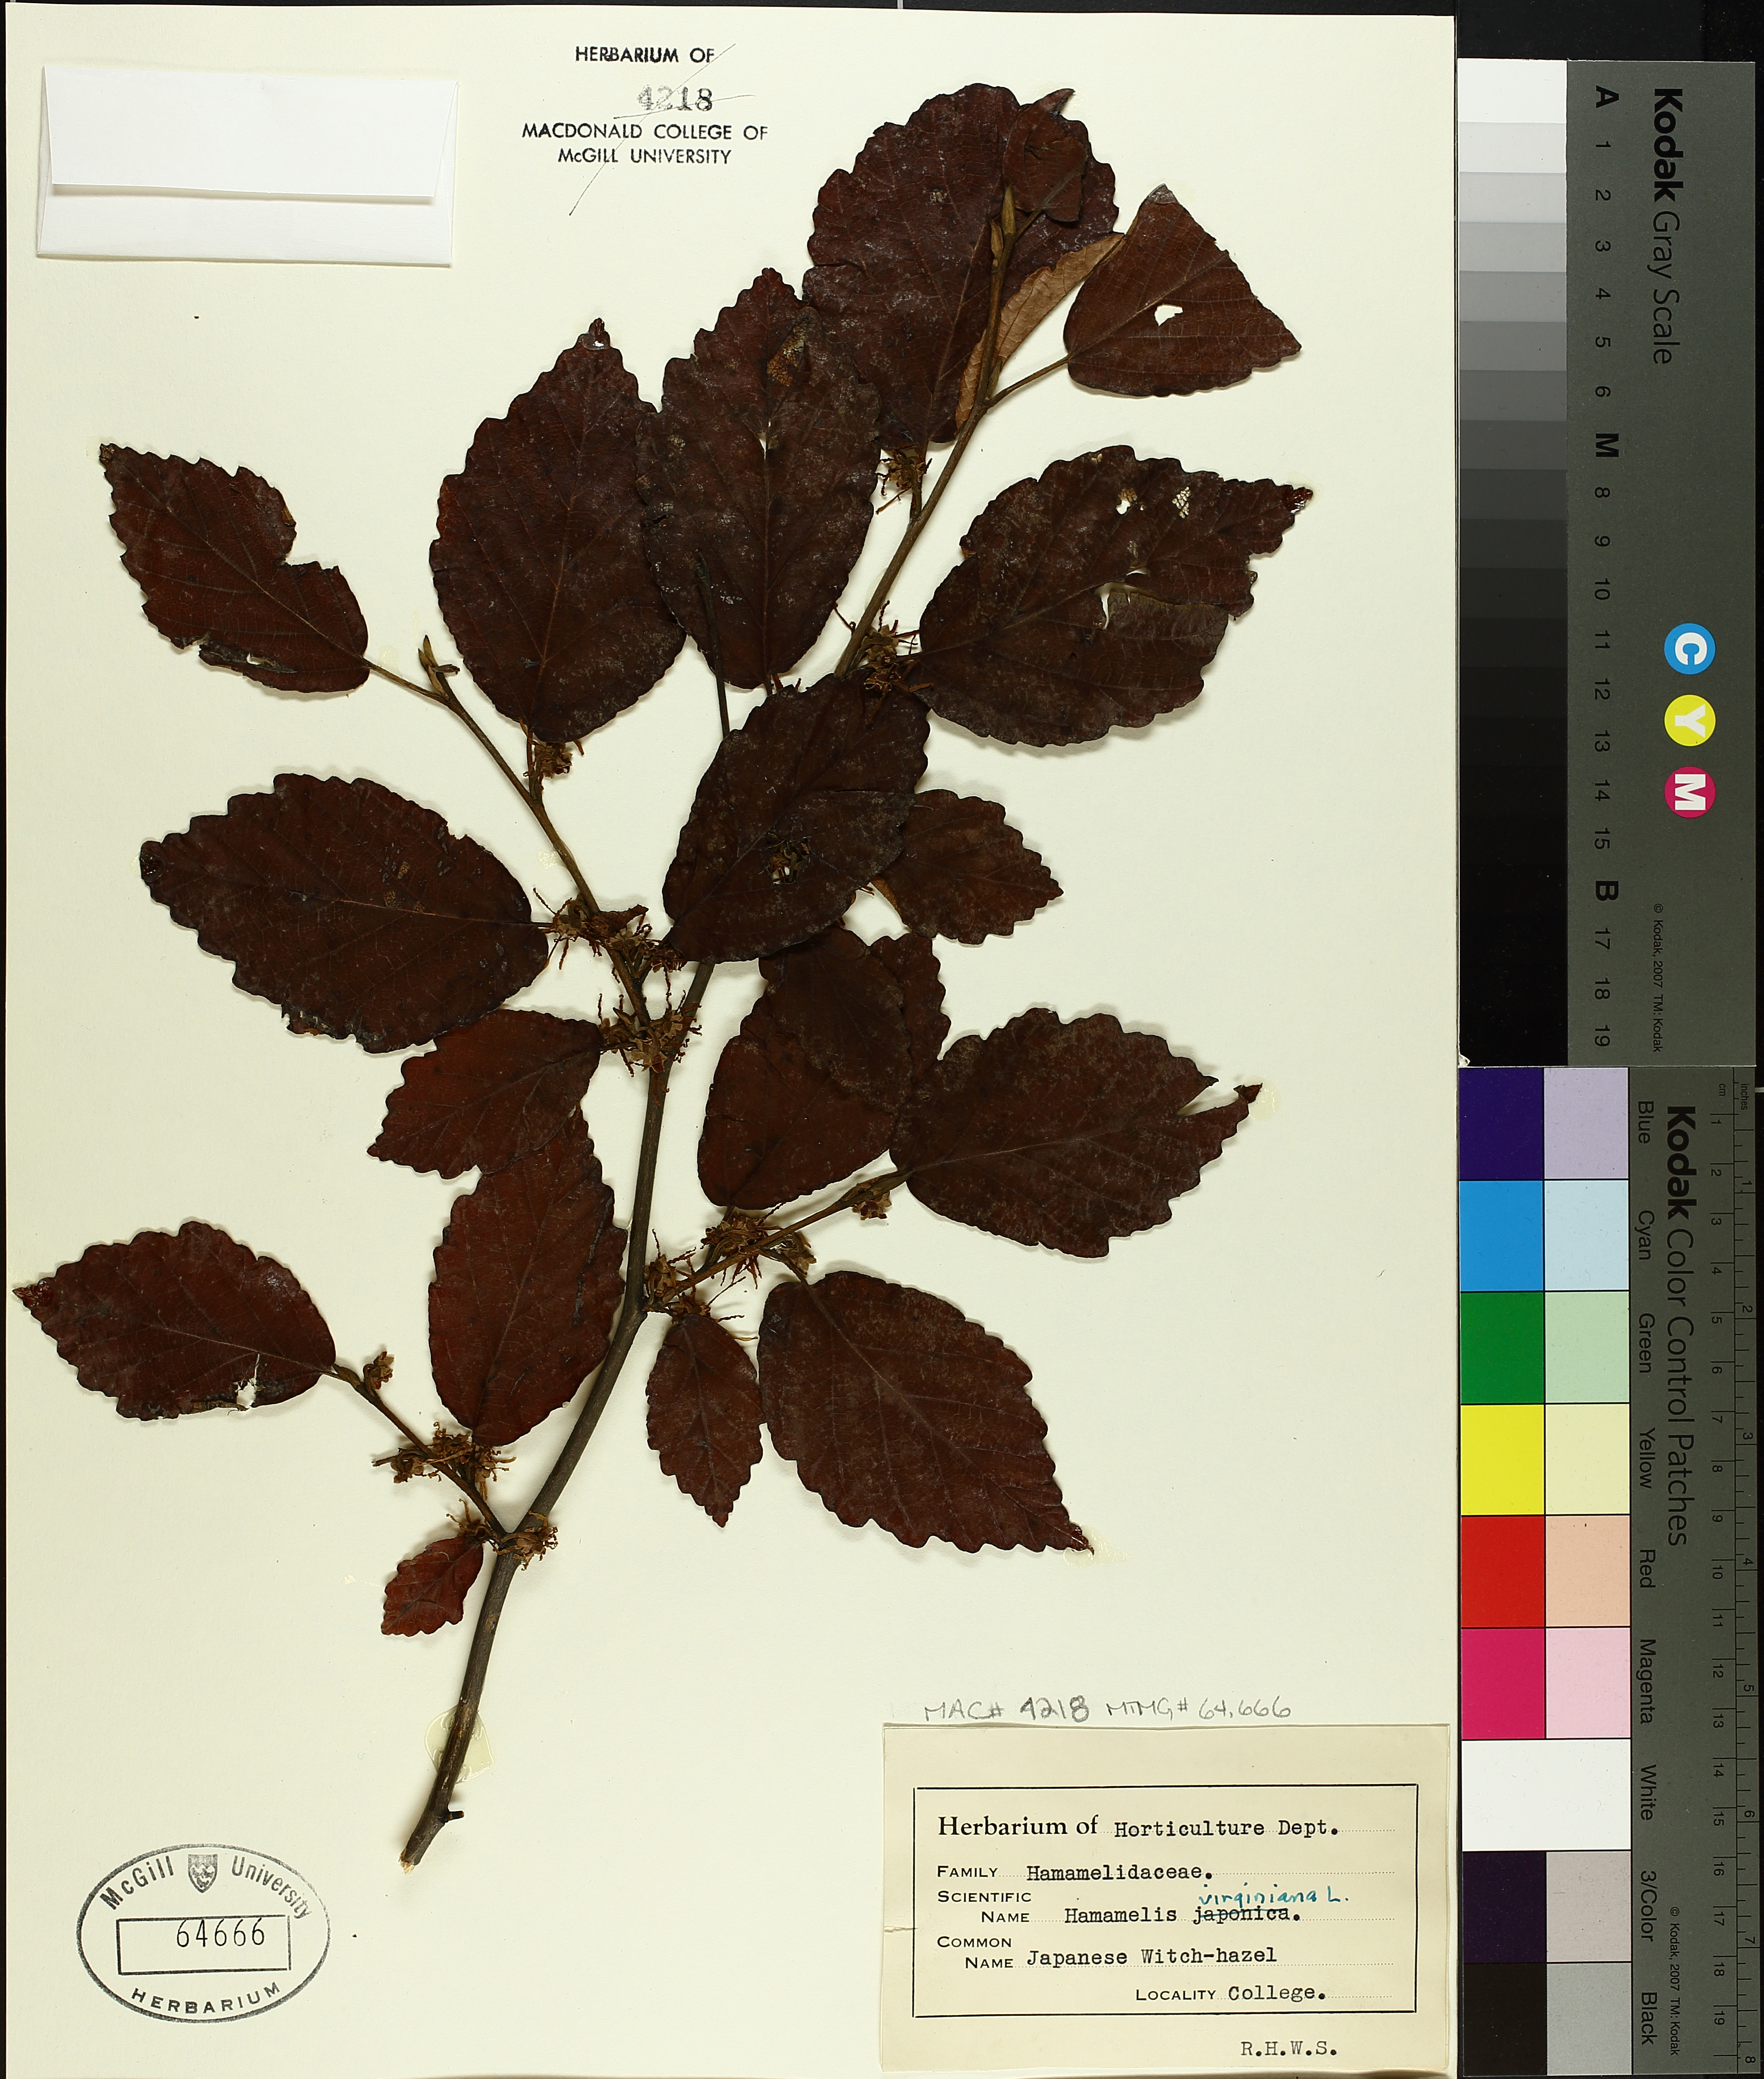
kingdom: Plantae
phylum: Tracheophyta
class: Magnoliopsida
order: Saxifragales
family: Hamamelidaceae
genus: Hamamelis
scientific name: Hamamelis virginiana
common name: Witch-hazel
